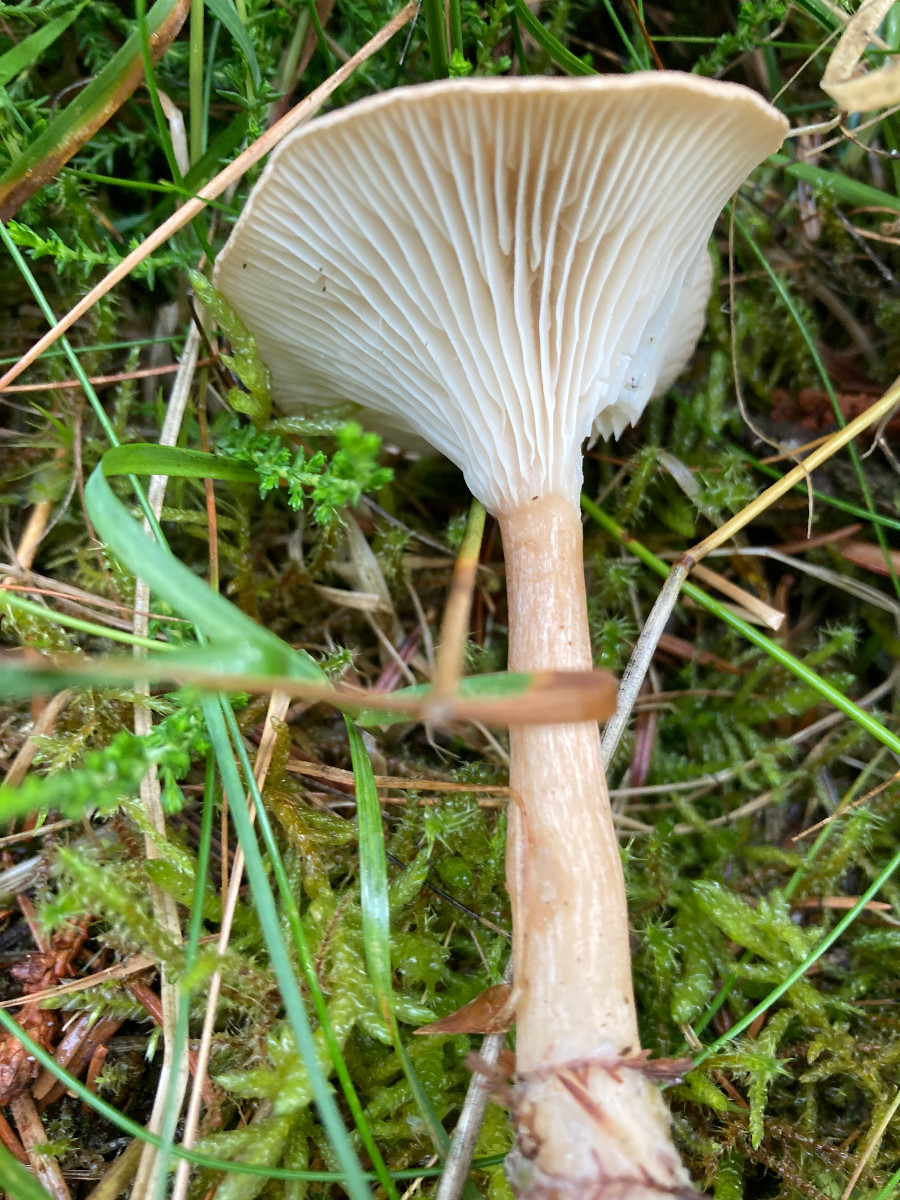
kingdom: Fungi
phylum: Basidiomycota
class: Agaricomycetes
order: Agaricales
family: Tricholomataceae
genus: Infundibulicybe
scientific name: Infundibulicybe squamulosa
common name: småskællet tragthat
